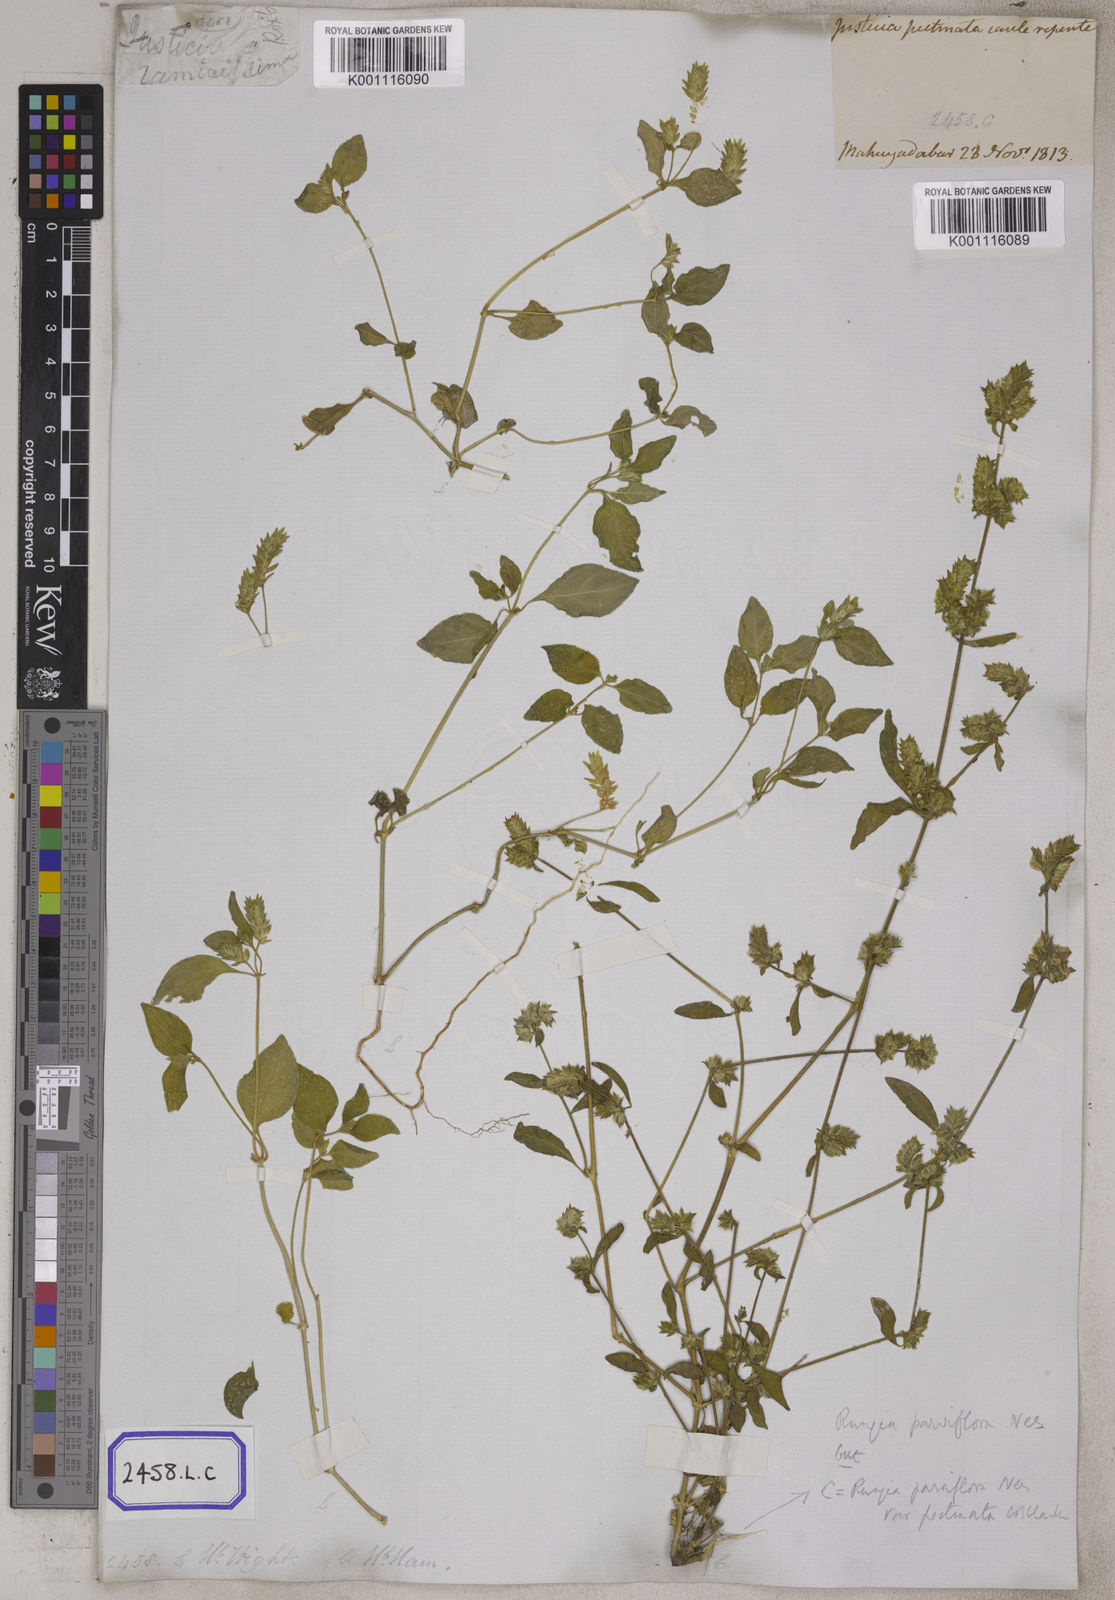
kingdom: Plantae
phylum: Tracheophyta
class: Magnoliopsida
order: Lamiales
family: Acanthaceae
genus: Rungia
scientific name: Rungia pectinata
